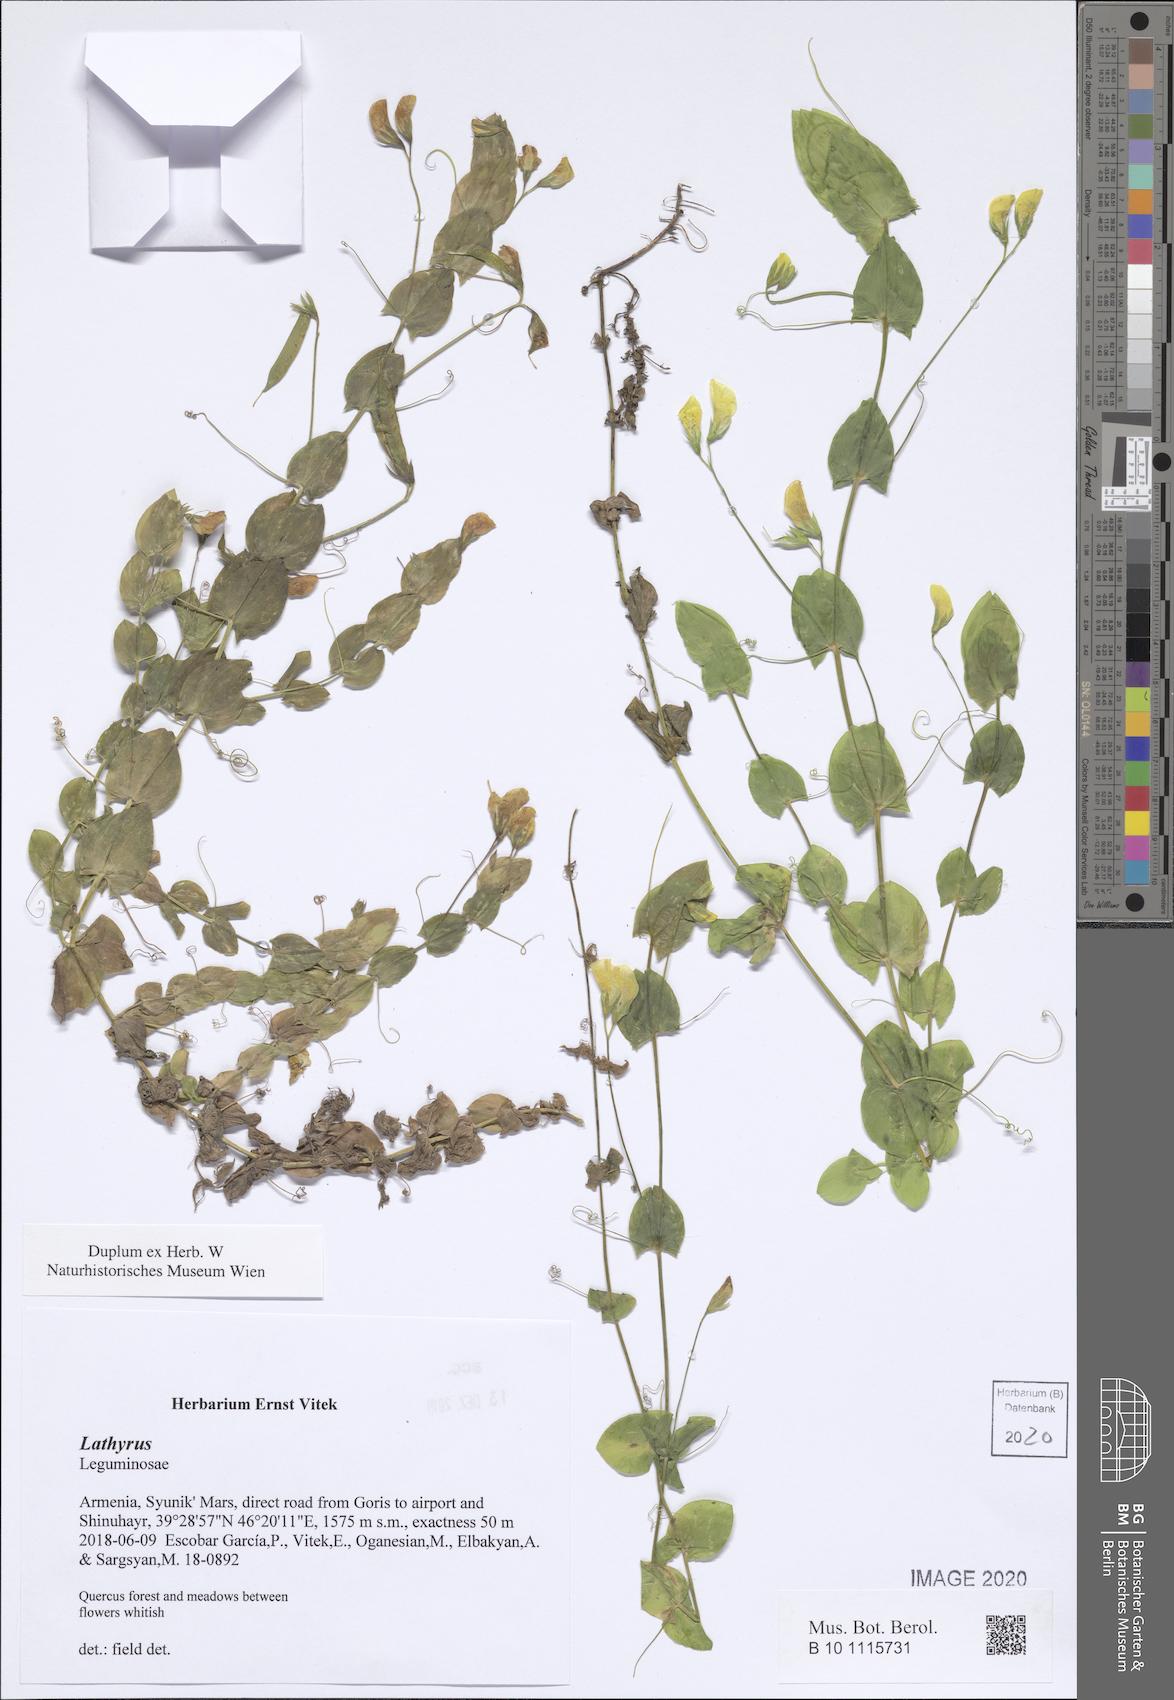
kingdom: Plantae
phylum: Tracheophyta
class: Magnoliopsida
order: Fabales
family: Fabaceae
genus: Lathyrus
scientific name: Lathyrus
